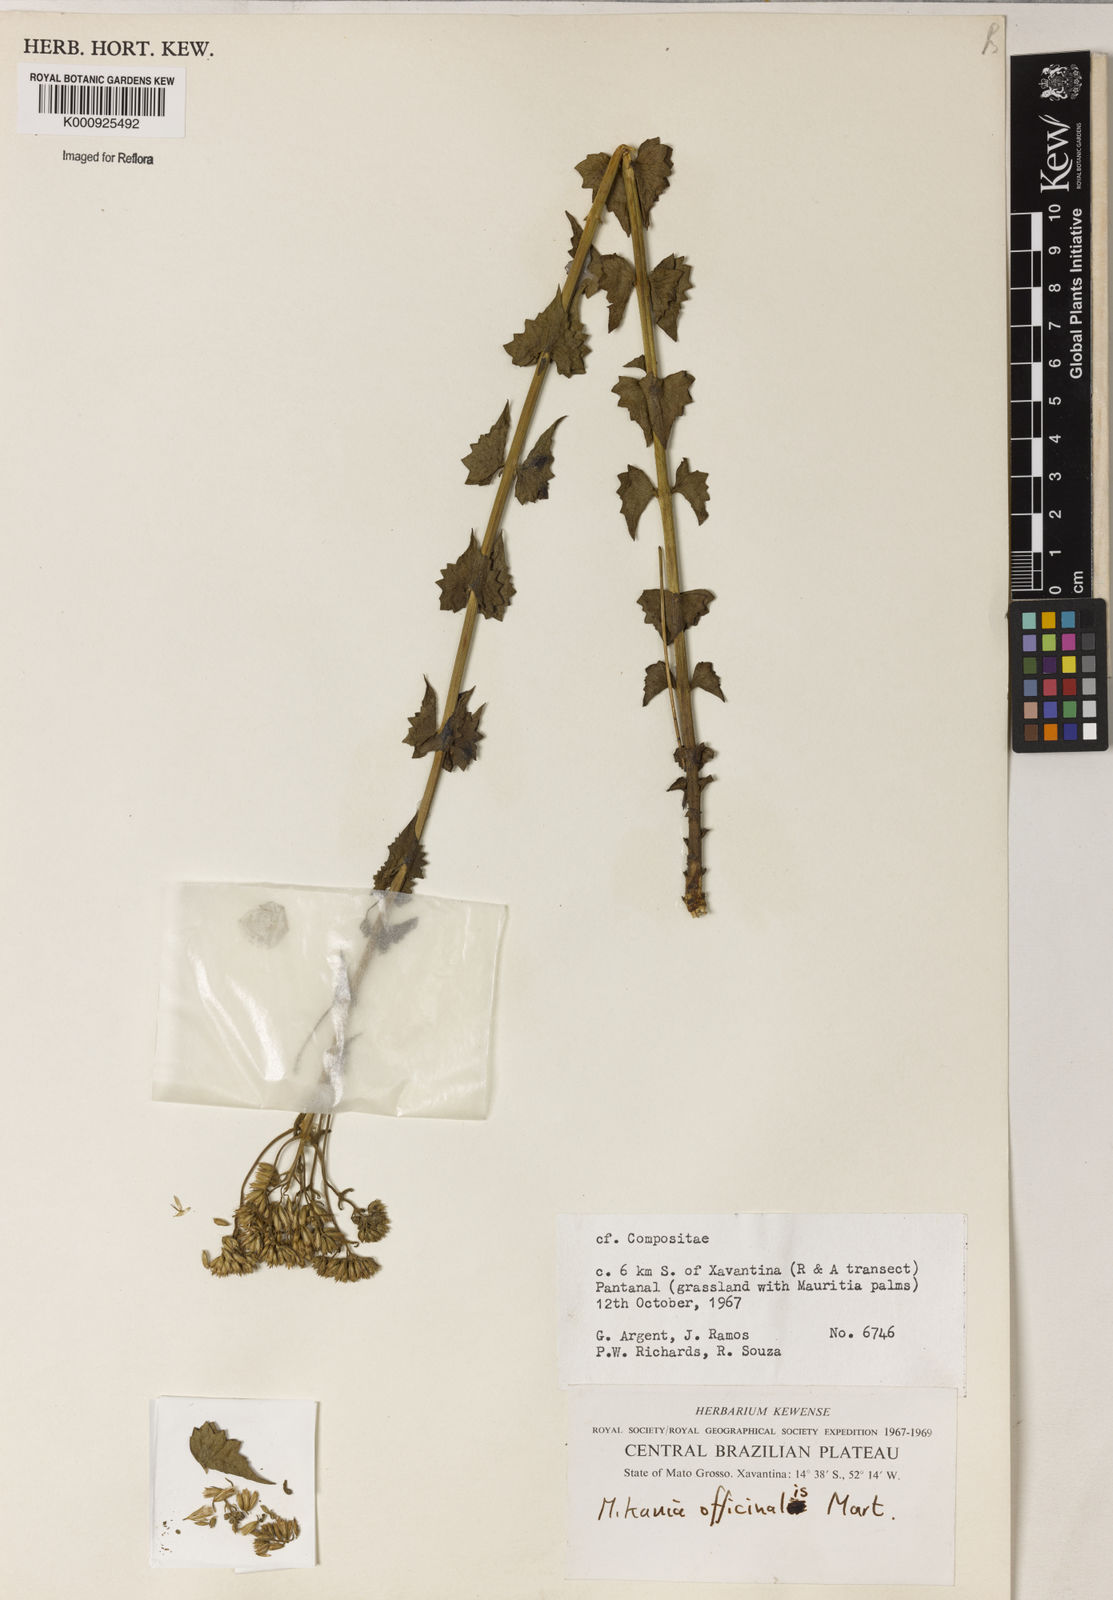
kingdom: Plantae
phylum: Tracheophyta
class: Magnoliopsida
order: Asterales
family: Asteraceae
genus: Mikania
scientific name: Mikania officinalis
